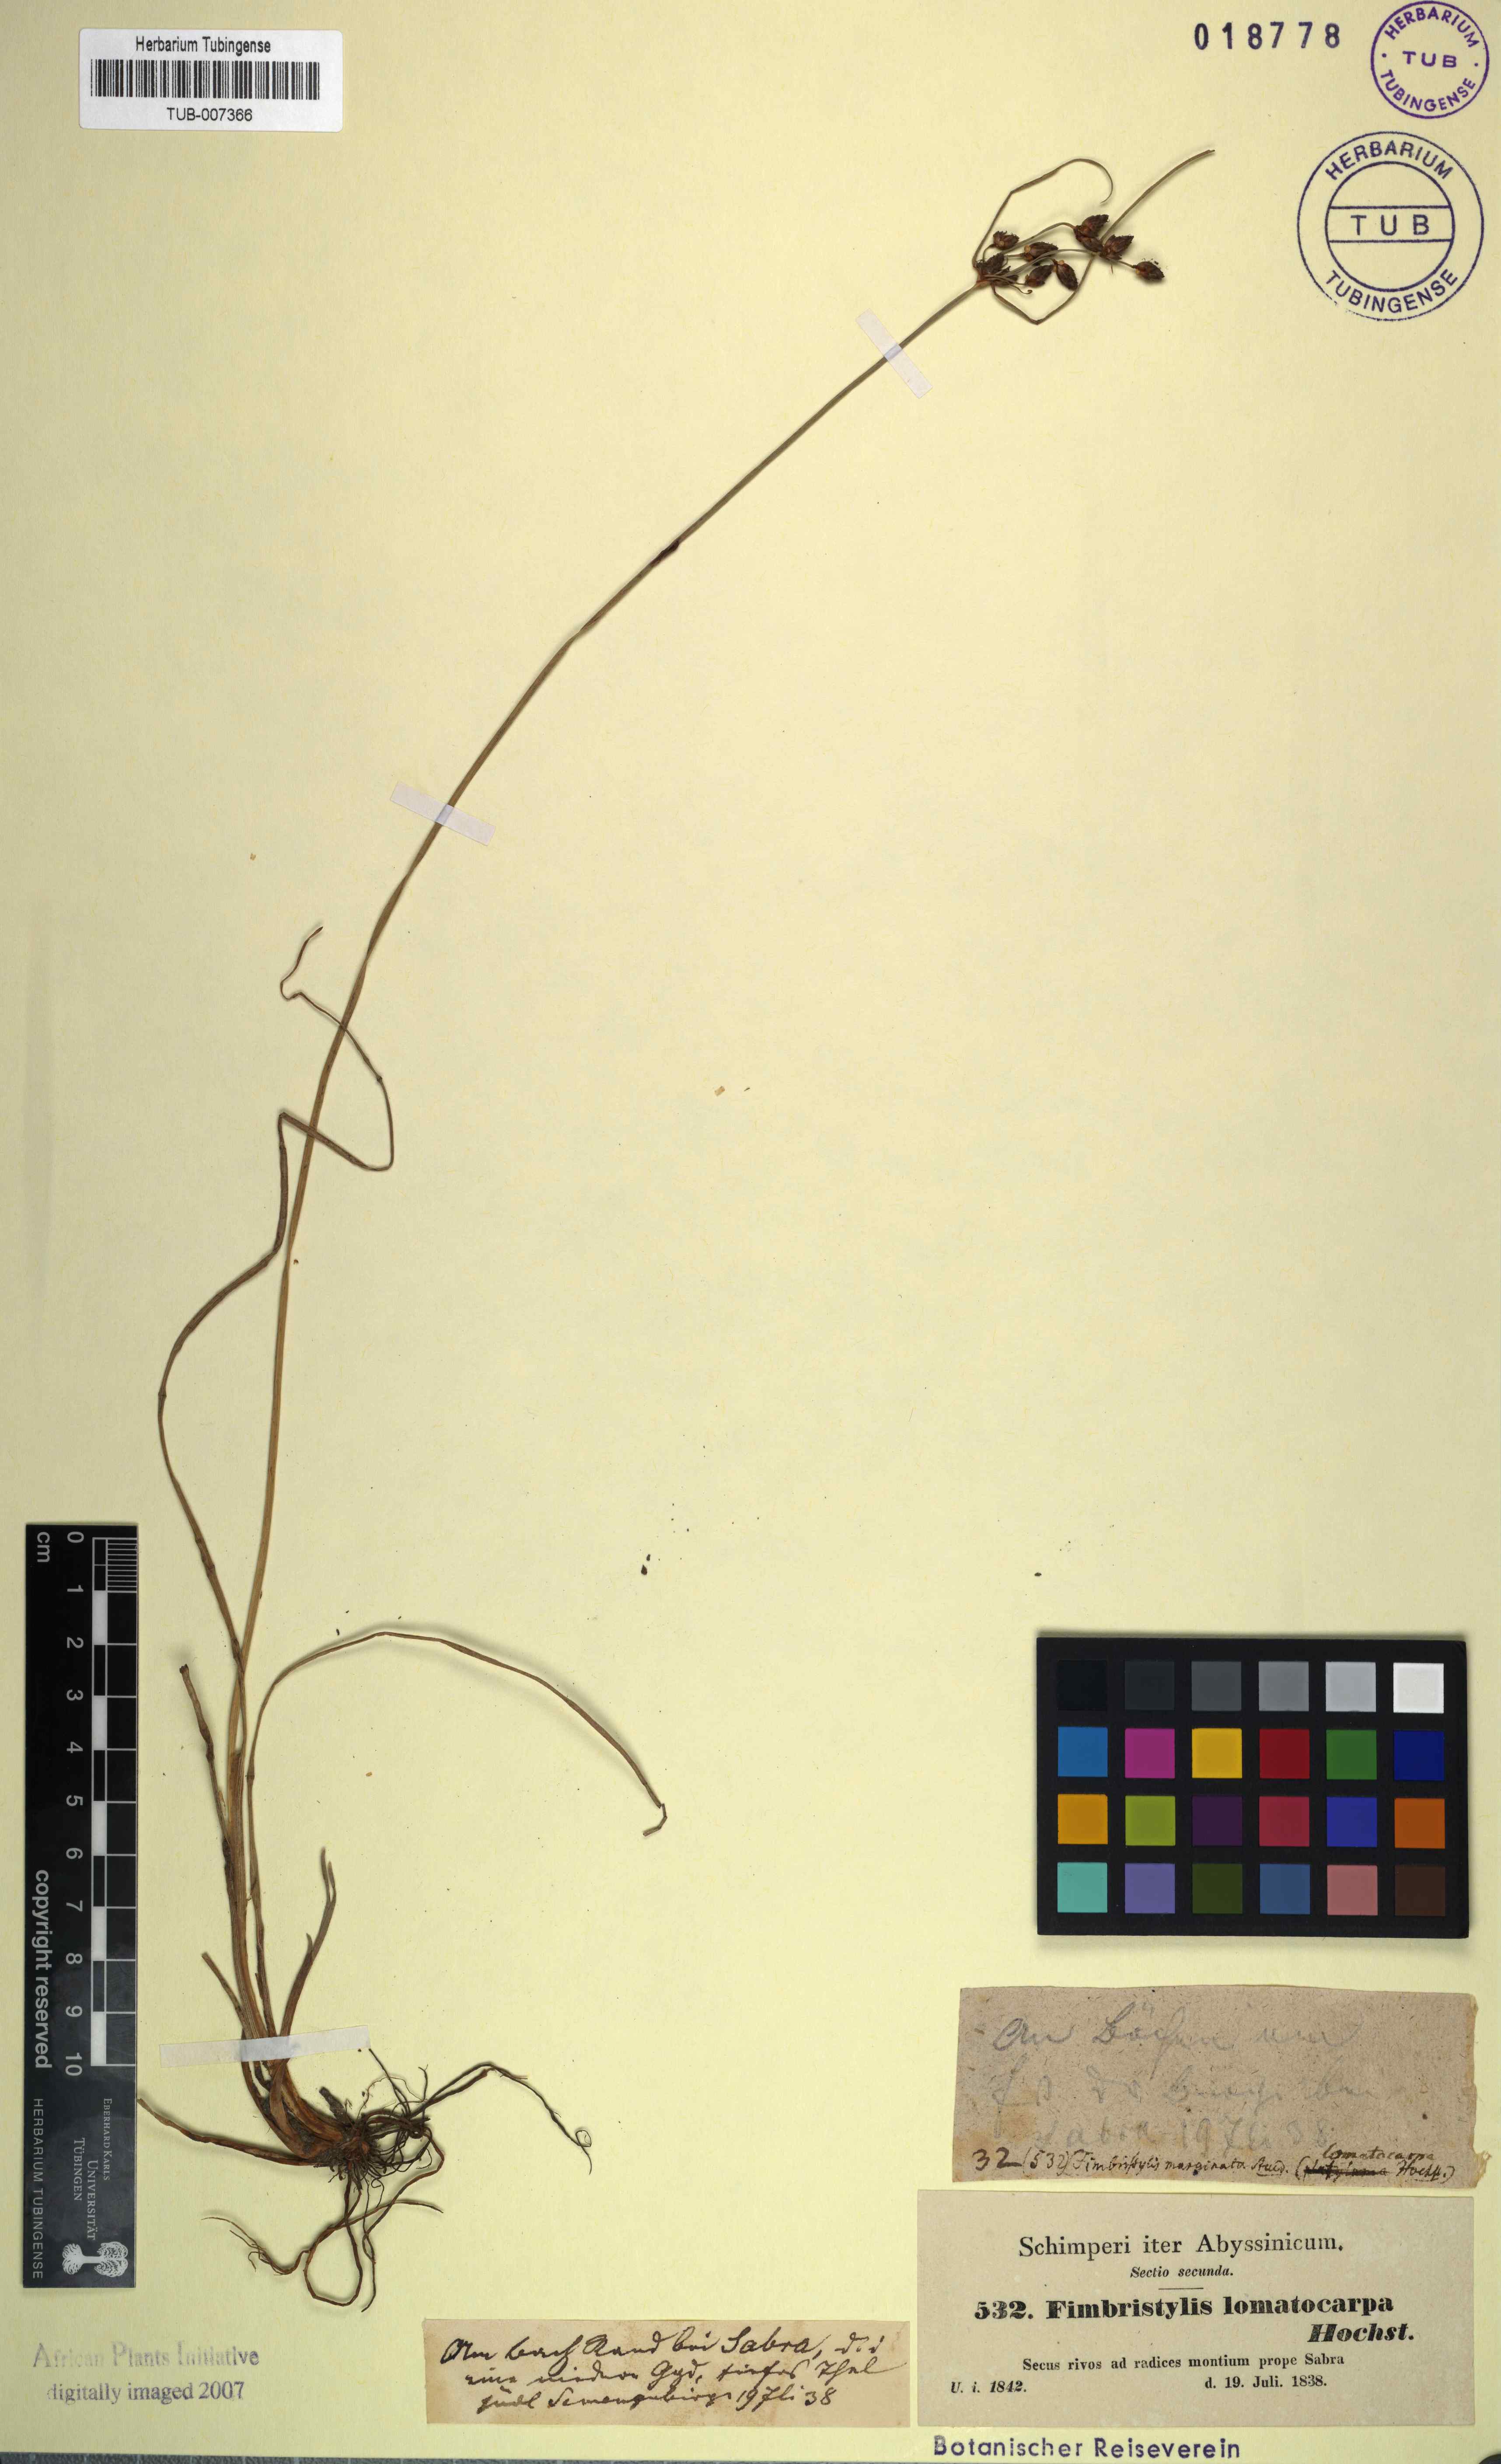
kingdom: Plantae
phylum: Tracheophyta
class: Liliopsida
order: Poales
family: Cyperaceae
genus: Fimbristylis
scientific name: Fimbristylis ferruginea
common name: West indian fimbry
